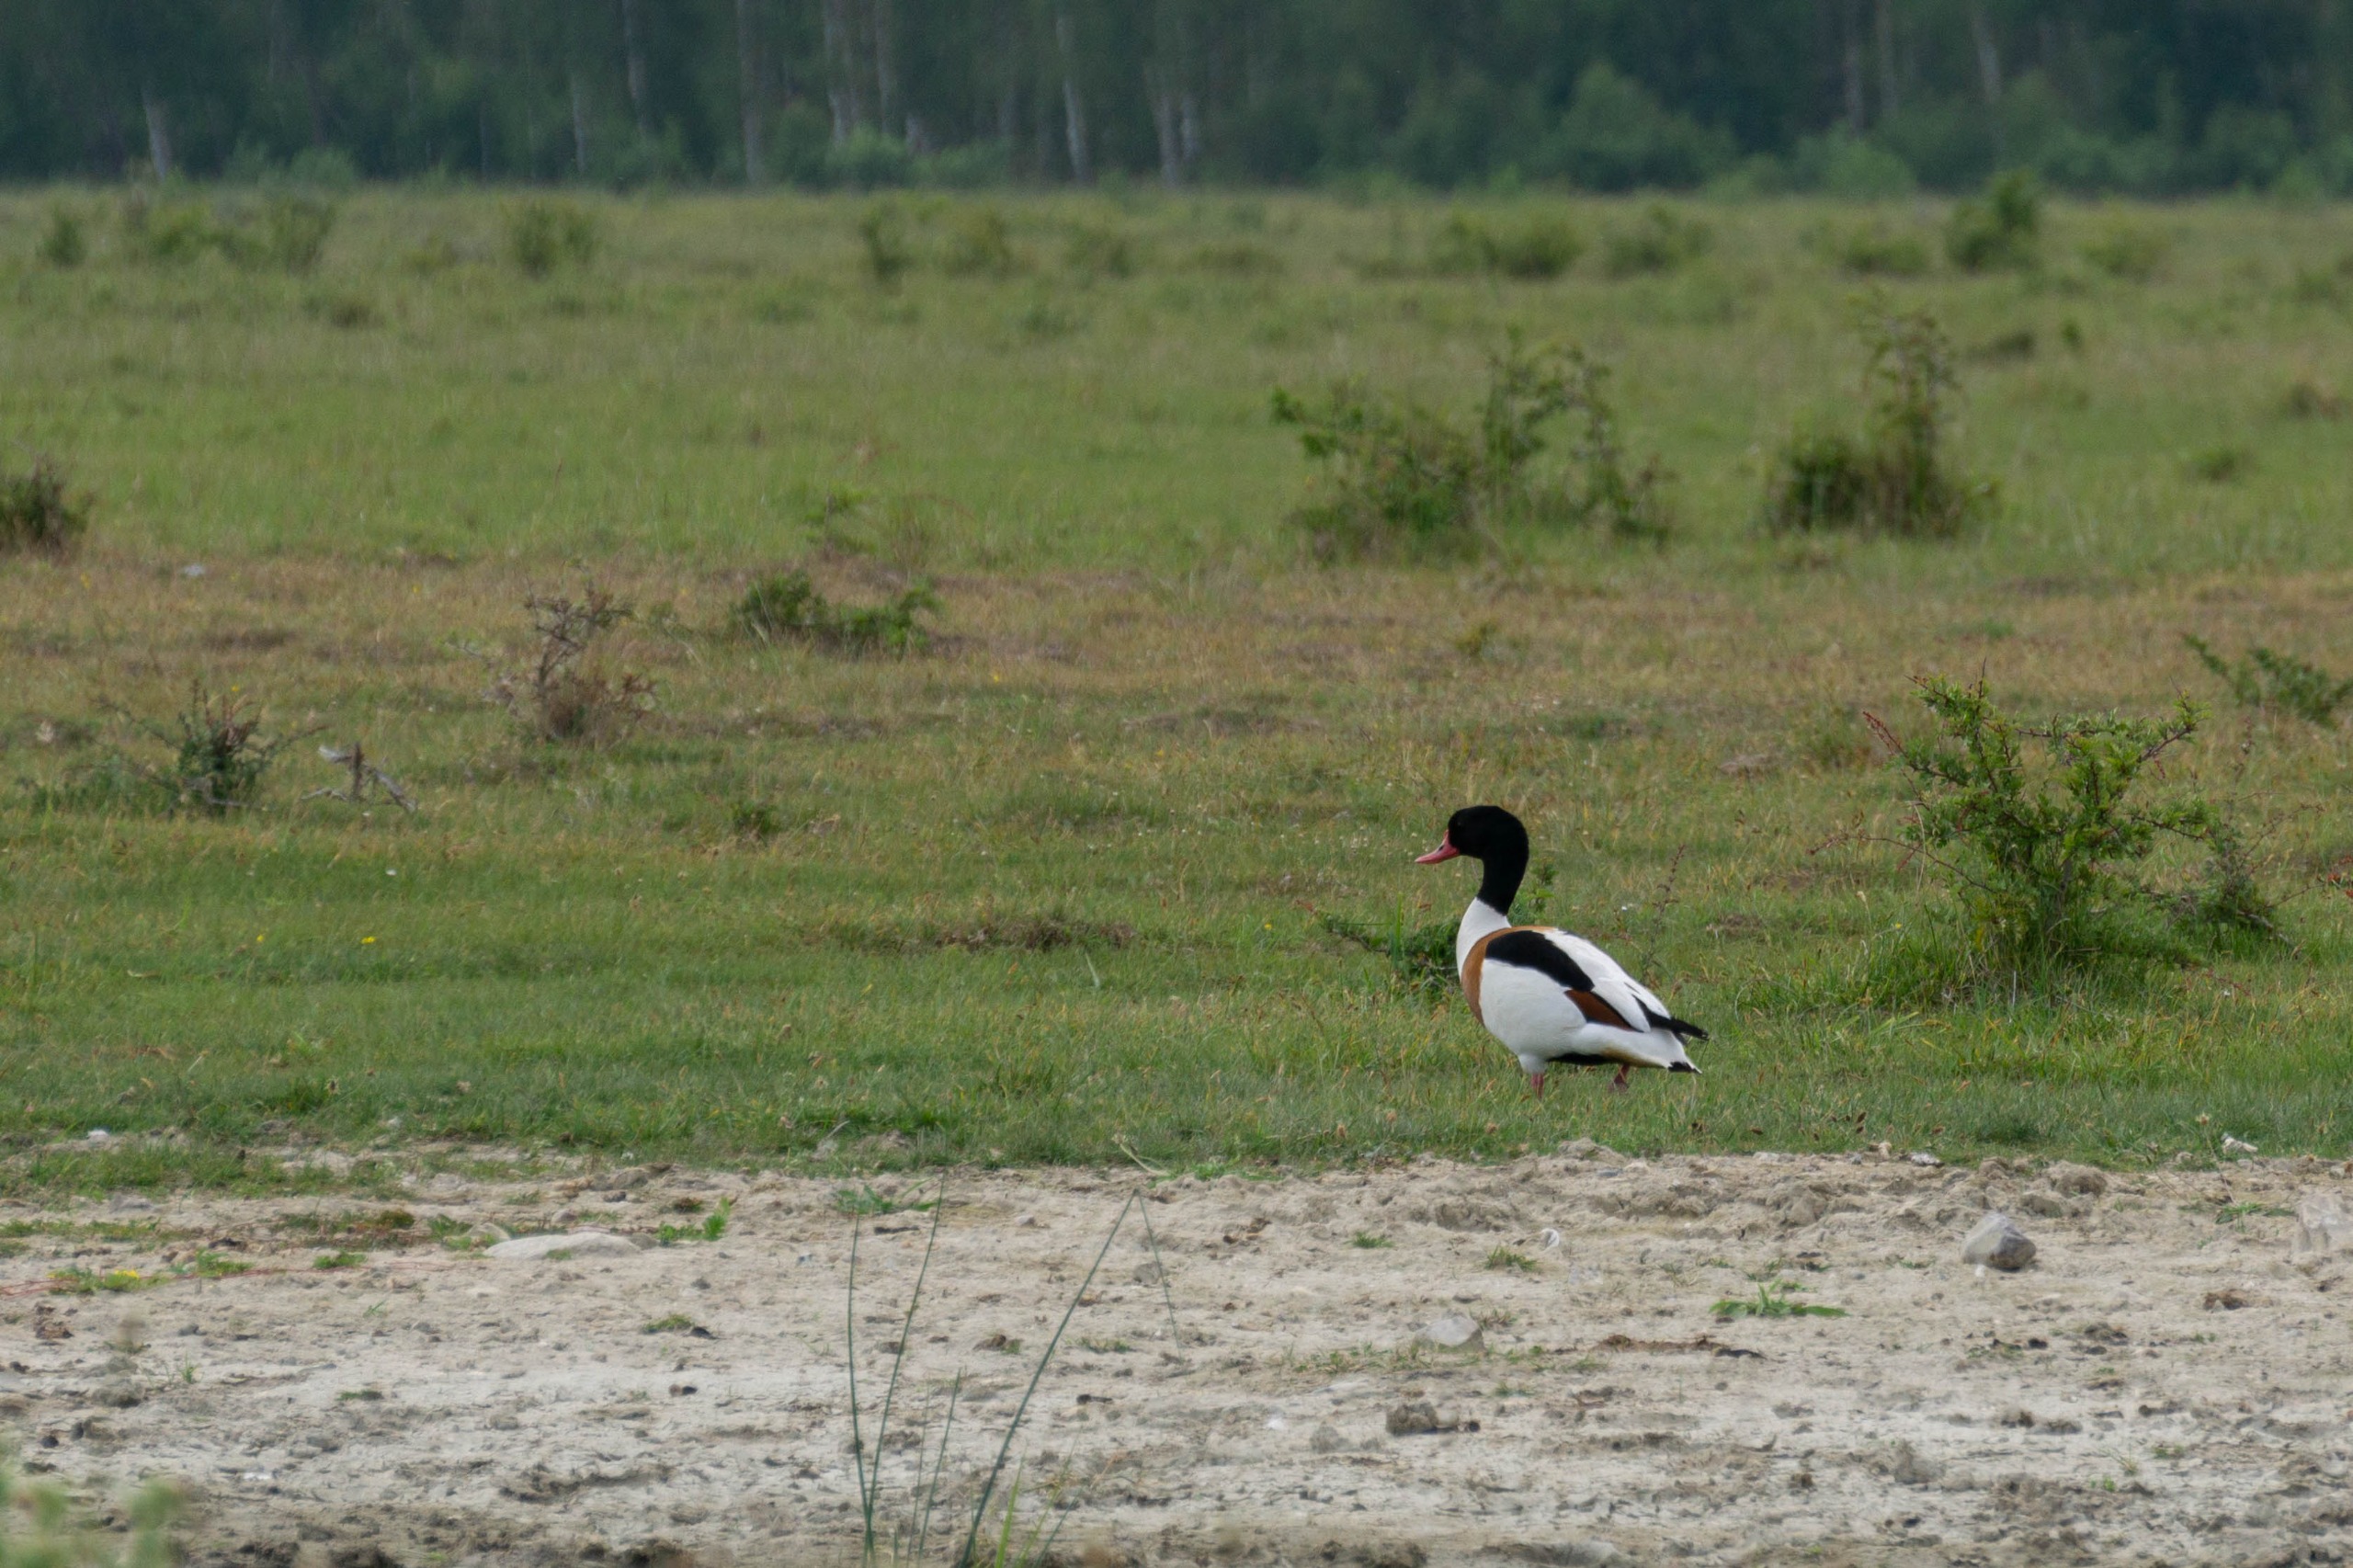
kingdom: Animalia
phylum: Chordata
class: Aves
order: Anseriformes
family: Anatidae
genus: Tadorna
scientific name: Tadorna tadorna
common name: Gravand
